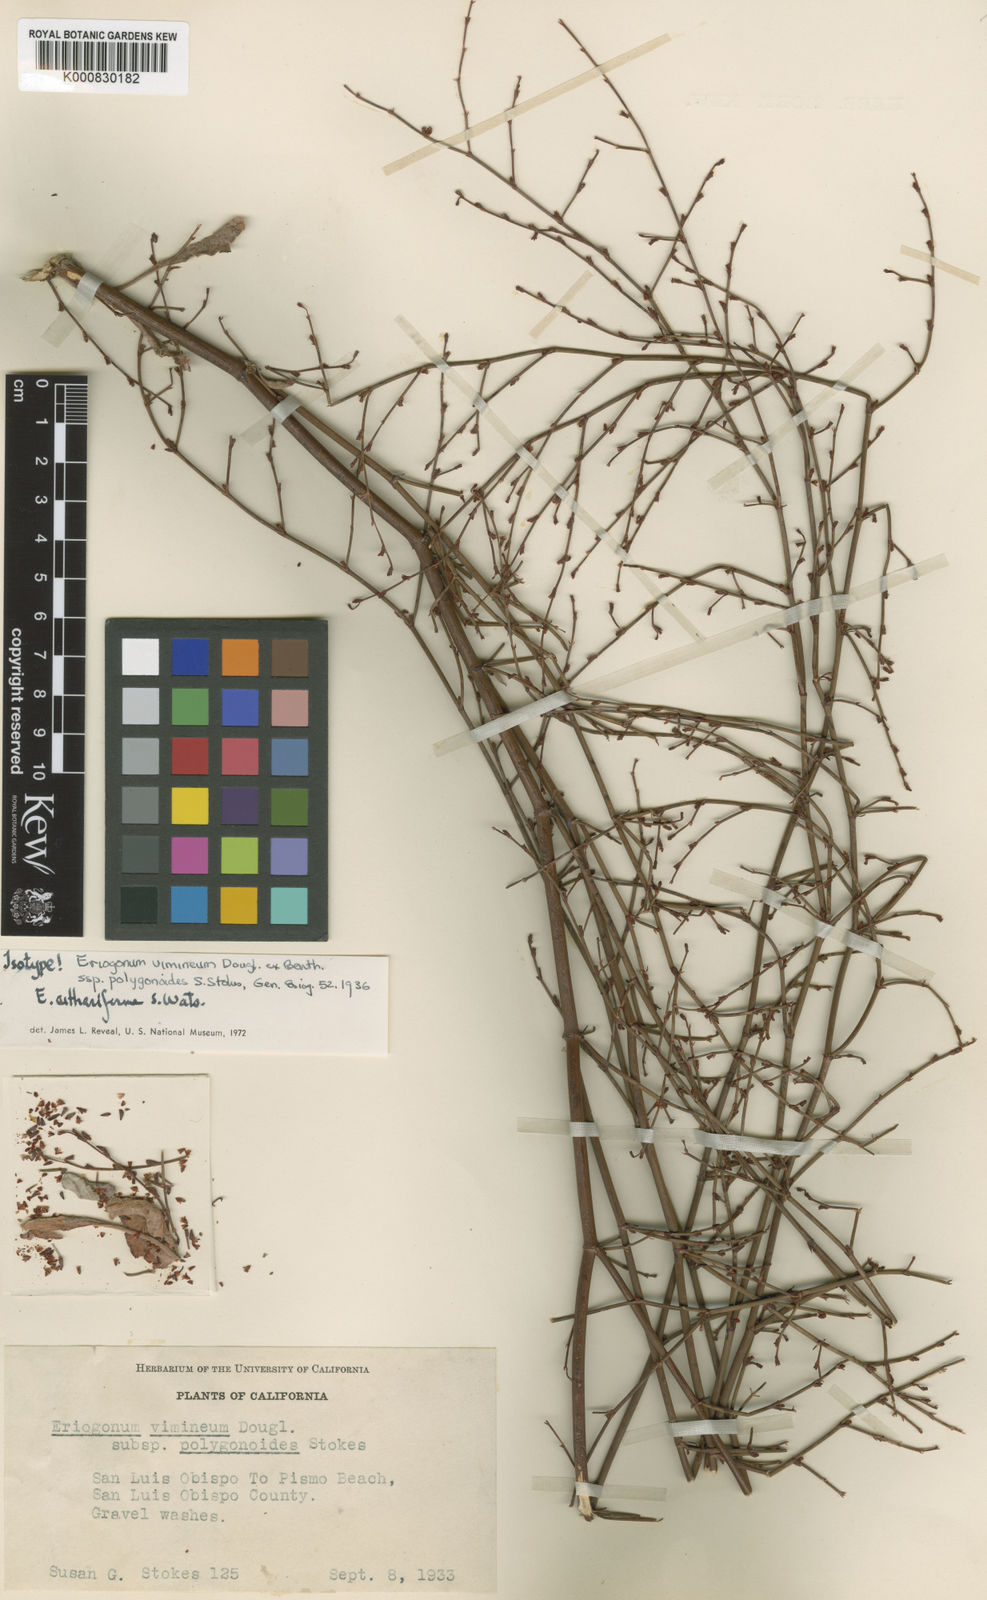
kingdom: Plantae
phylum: Tracheophyta
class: Magnoliopsida
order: Caryophyllales
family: Polygonaceae
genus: Eriogonum
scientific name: Eriogonum cithariforme
